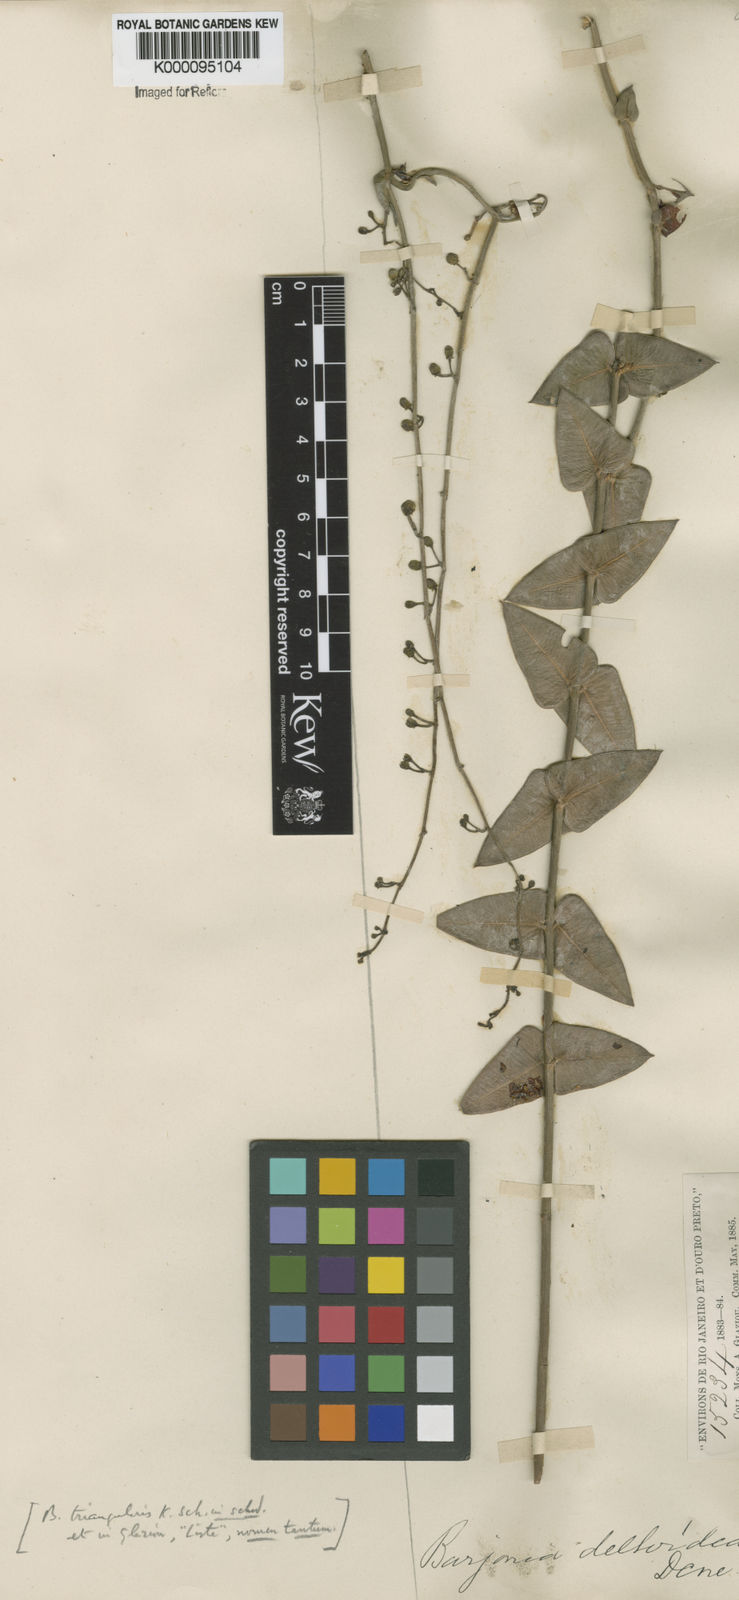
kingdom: Plantae
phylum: Tracheophyta
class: Magnoliopsida
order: Gentianales
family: Apocynaceae
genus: Barjonia
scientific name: Barjonia erecta
